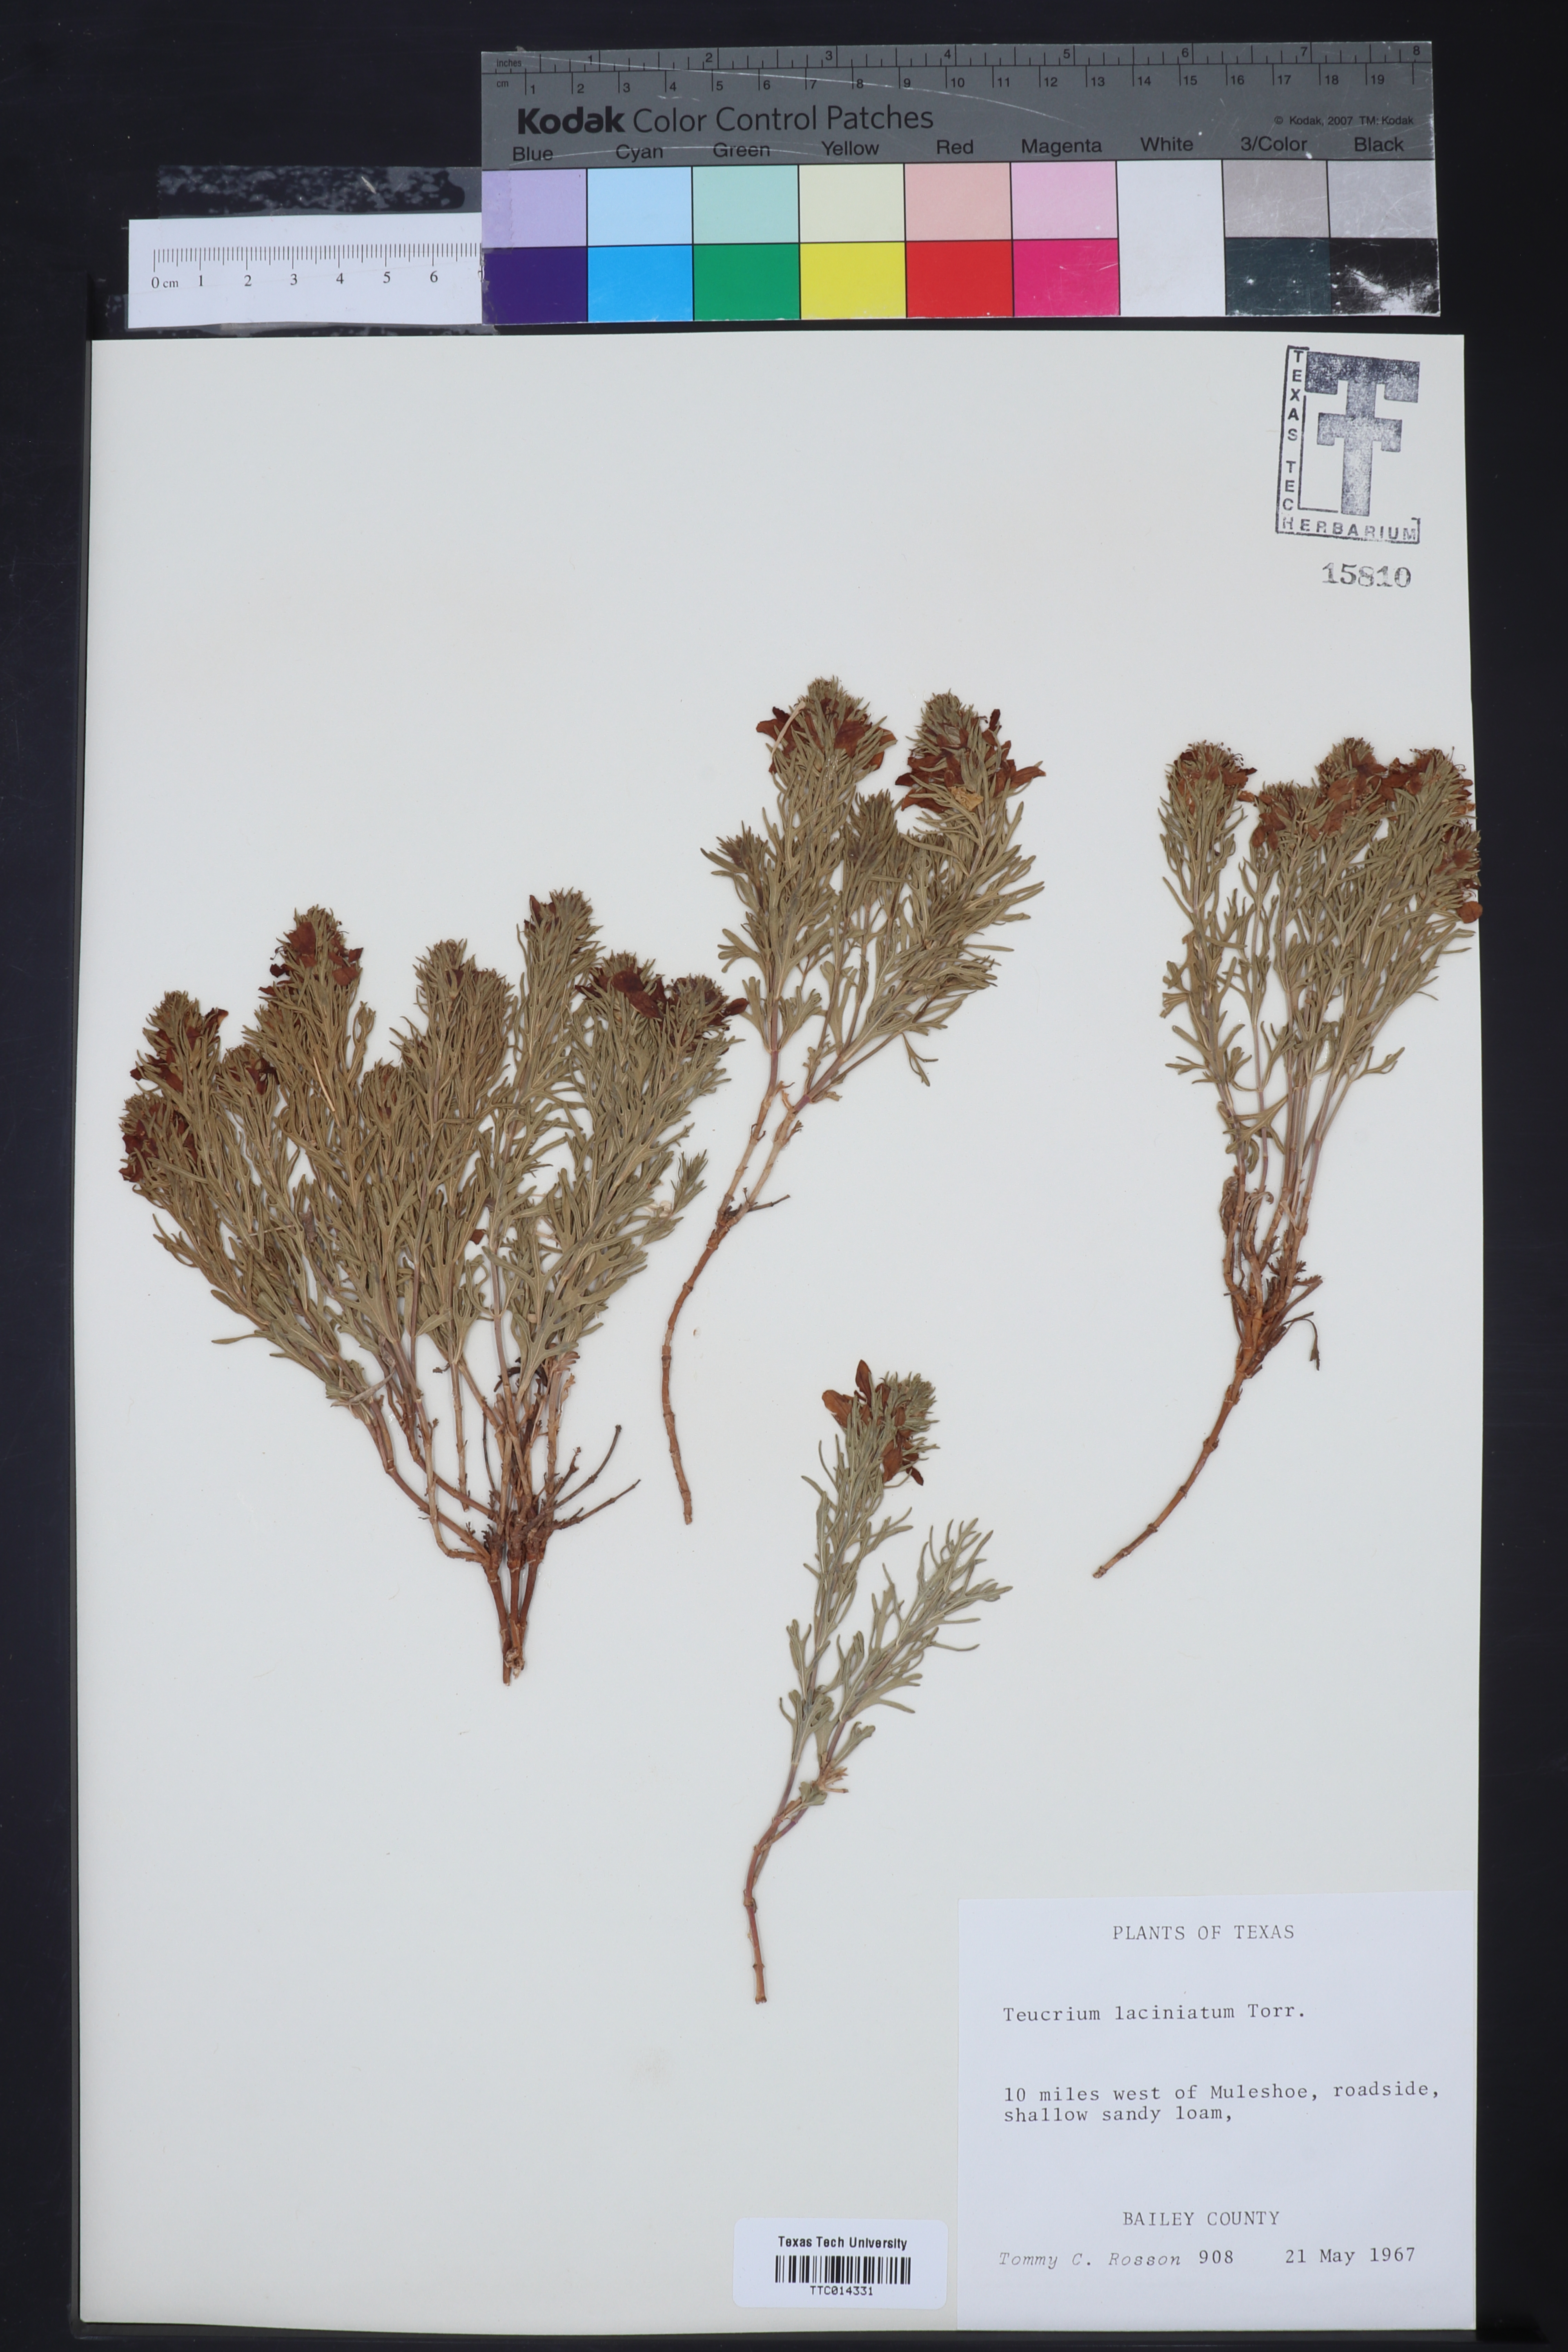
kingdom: Plantae
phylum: Tracheophyta
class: Magnoliopsida
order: Lamiales
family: Lamiaceae
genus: Teucrium
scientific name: Teucrium laciniatum
